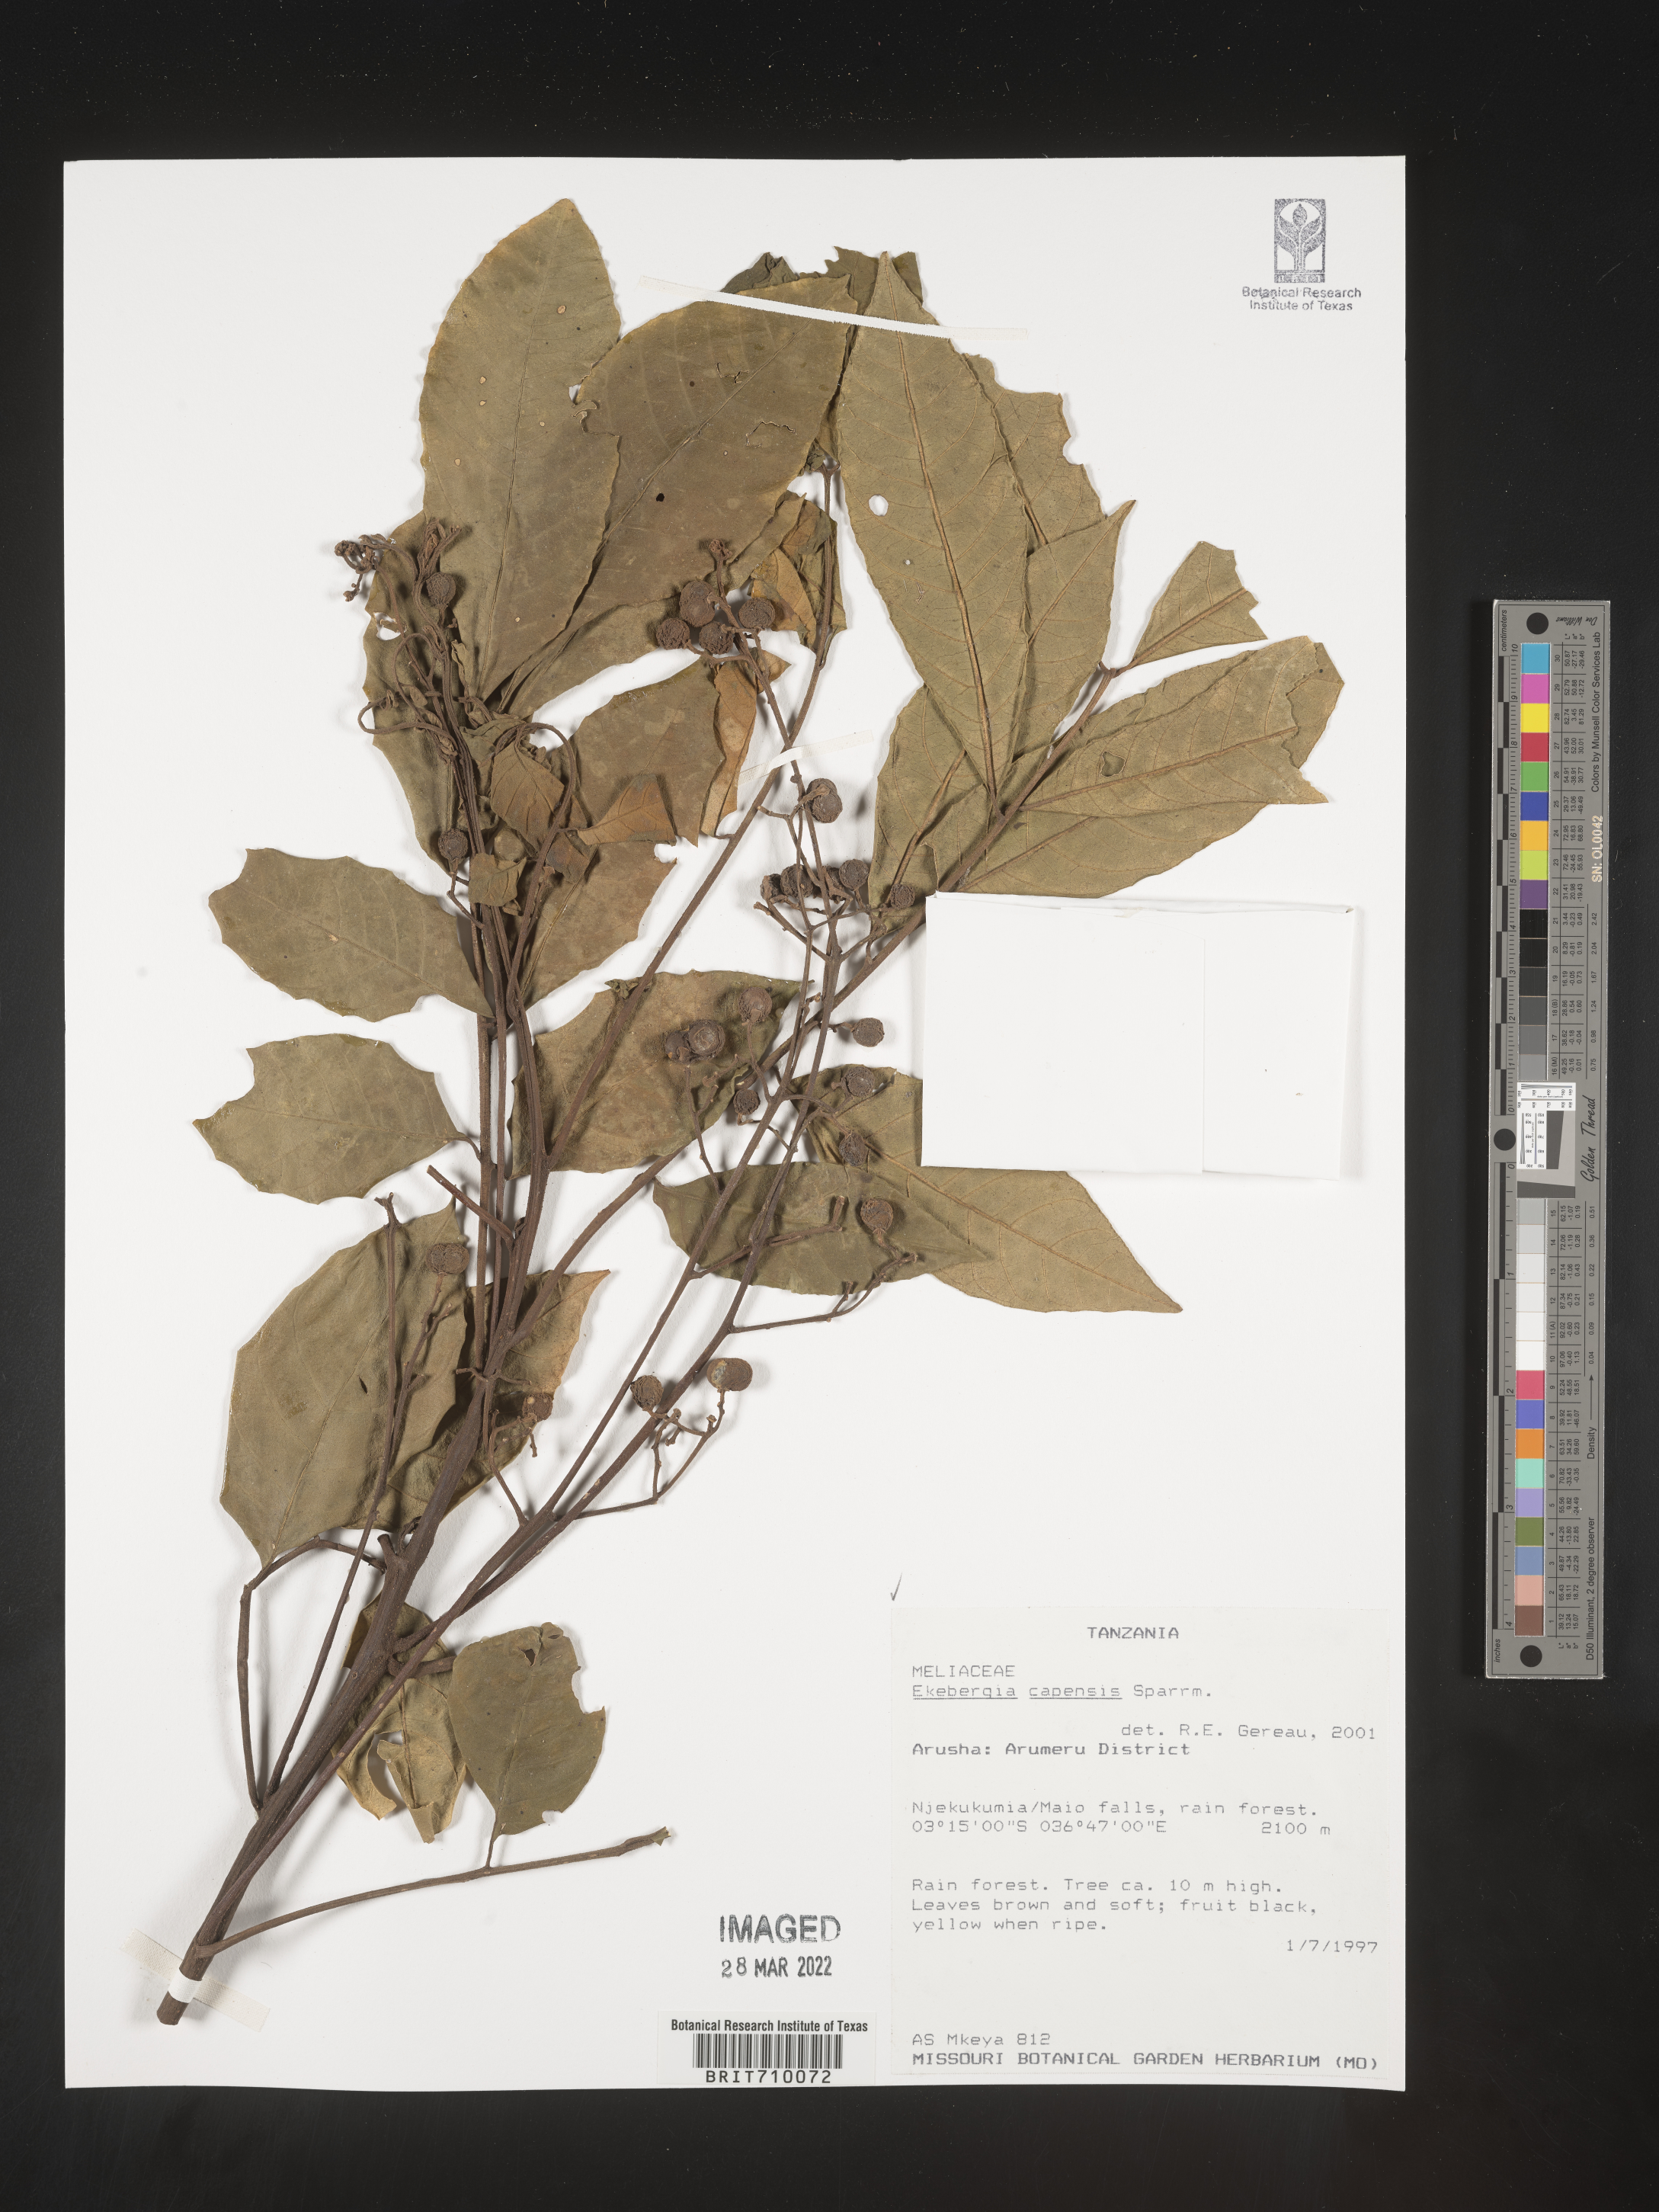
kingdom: Plantae
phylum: Tracheophyta
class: Magnoliopsida
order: Sapindales
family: Meliaceae
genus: Ekebergia
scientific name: Ekebergia
